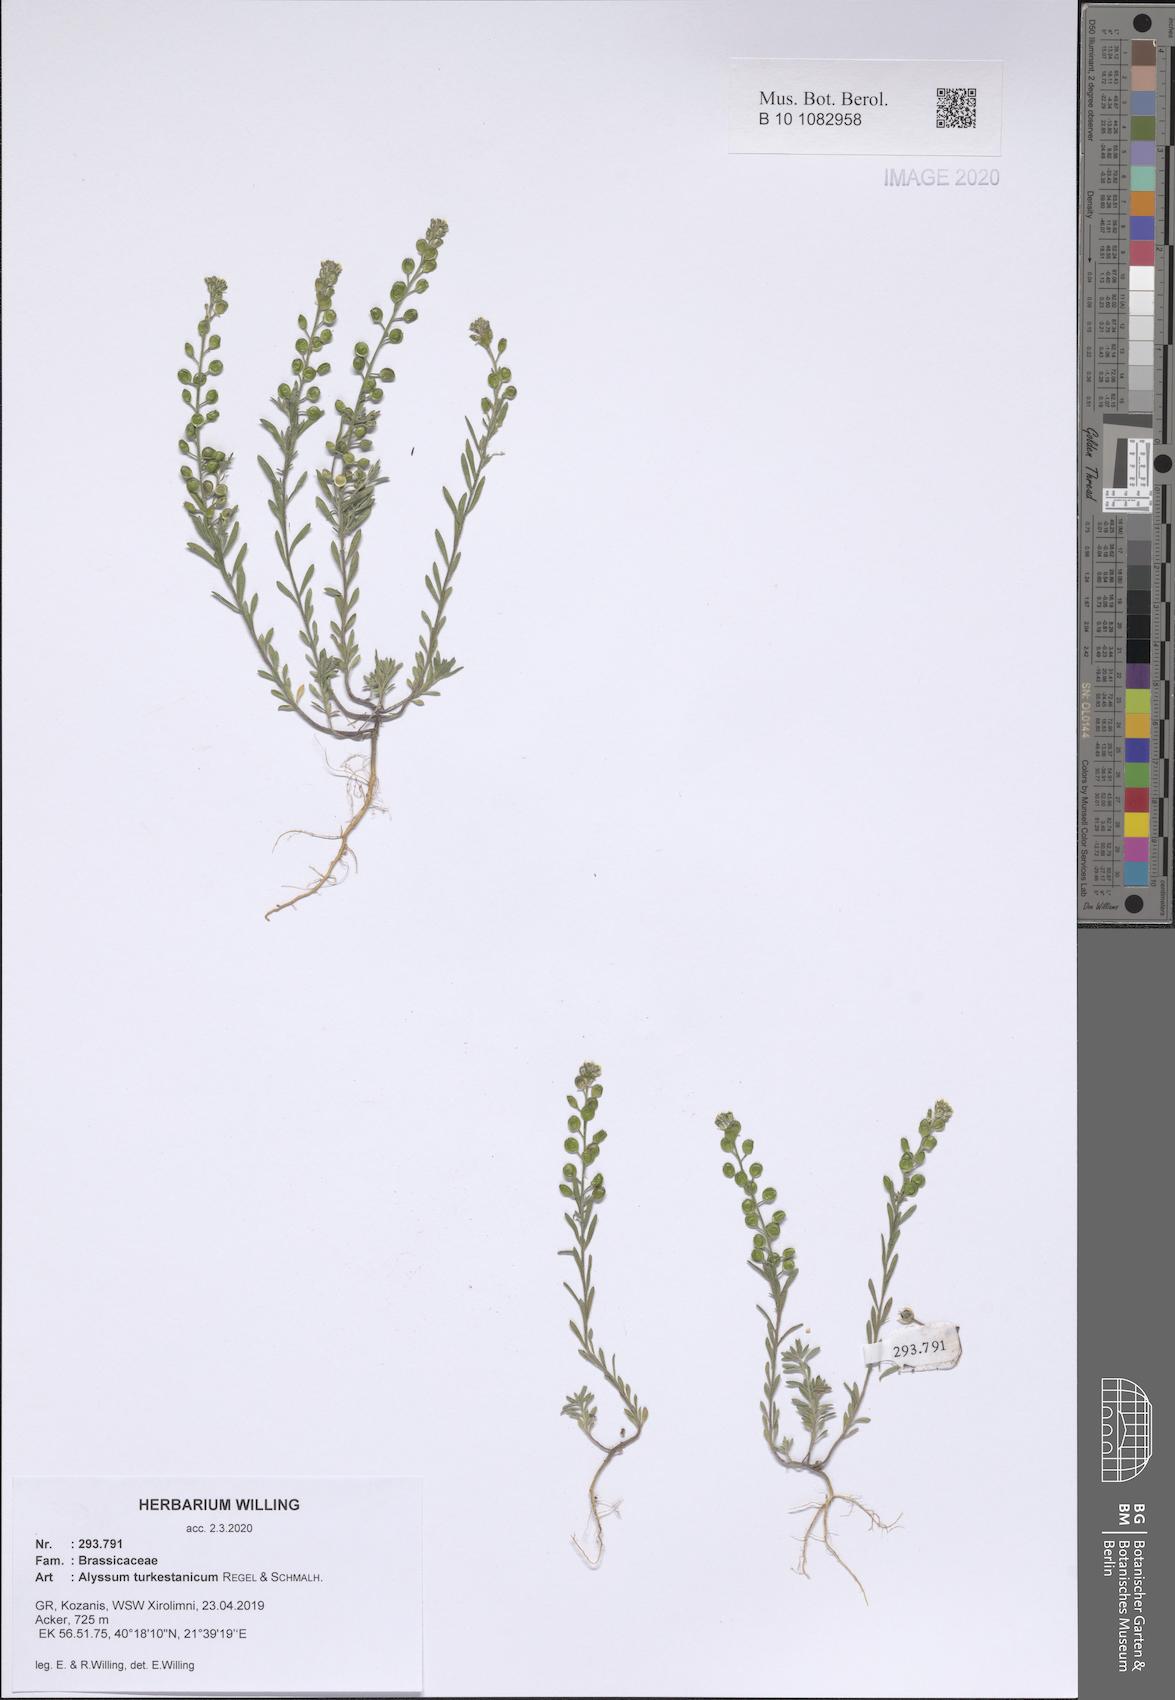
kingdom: Plantae
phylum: Tracheophyta
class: Magnoliopsida
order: Brassicales
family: Brassicaceae
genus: Alyssum
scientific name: Alyssum turkestanicum
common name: Desert alyssum
